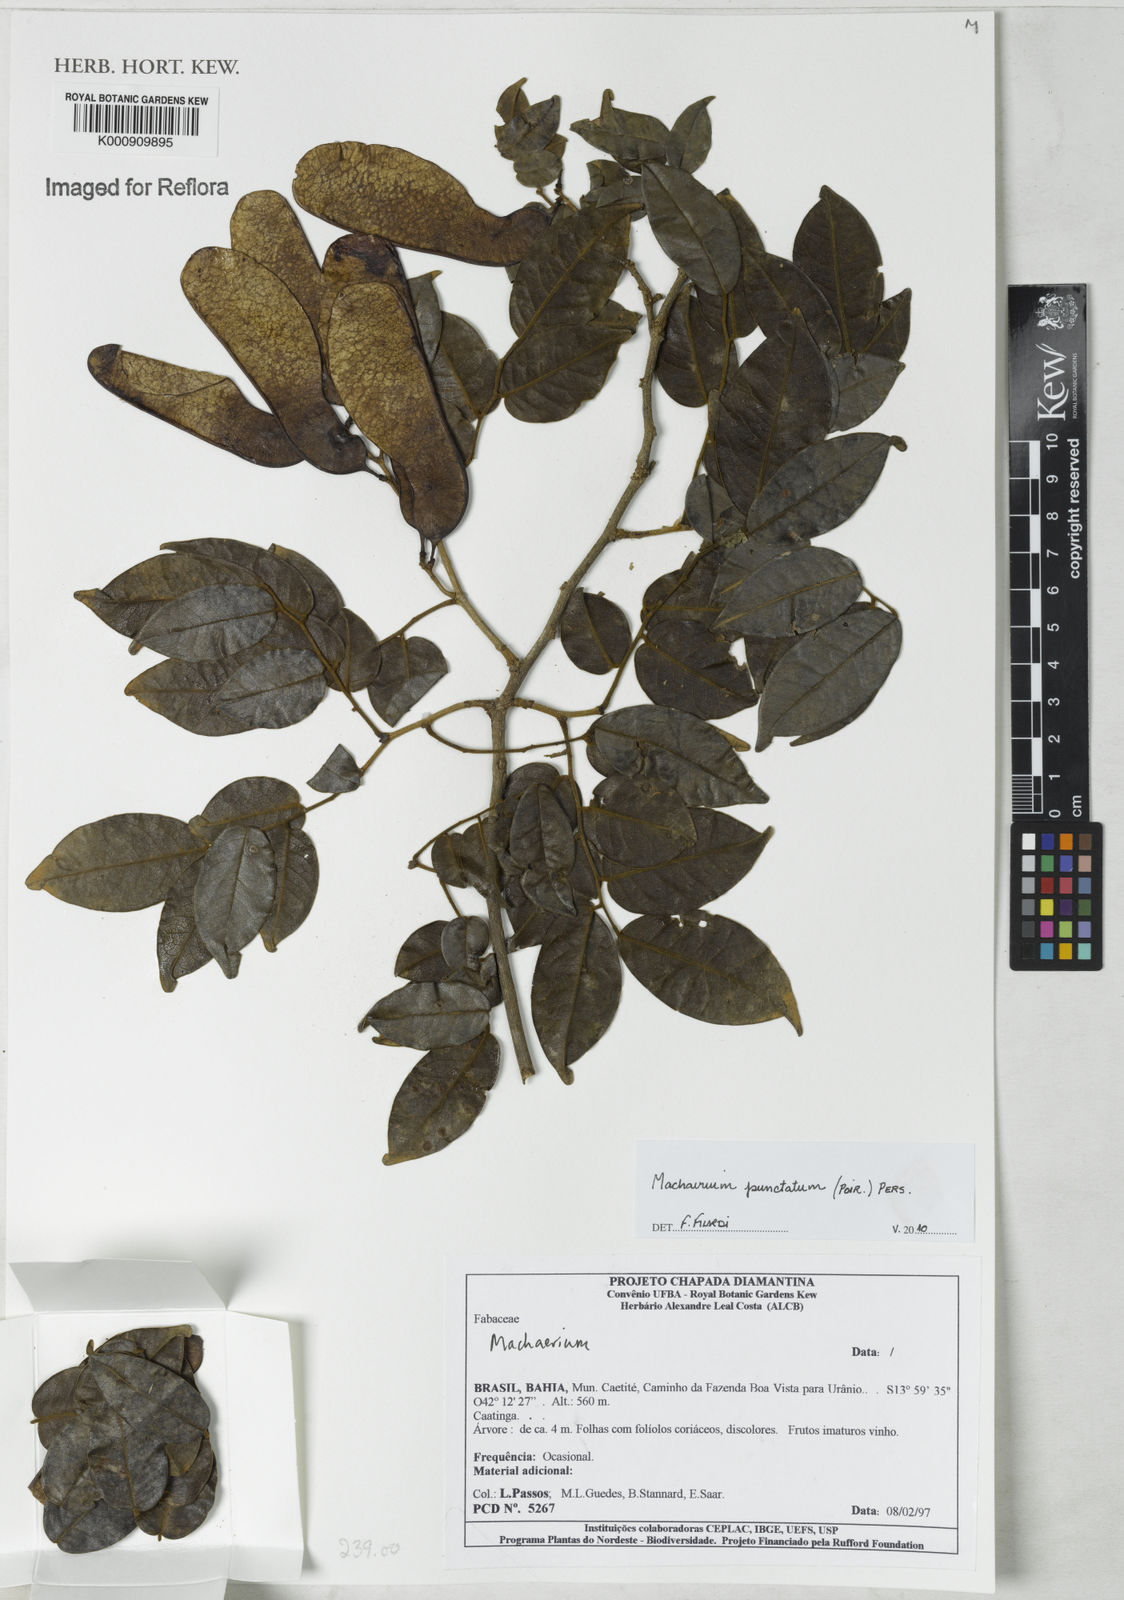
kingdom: Plantae
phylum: Tracheophyta
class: Magnoliopsida
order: Fabales
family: Fabaceae
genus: Machaerium
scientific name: Machaerium punctatum
